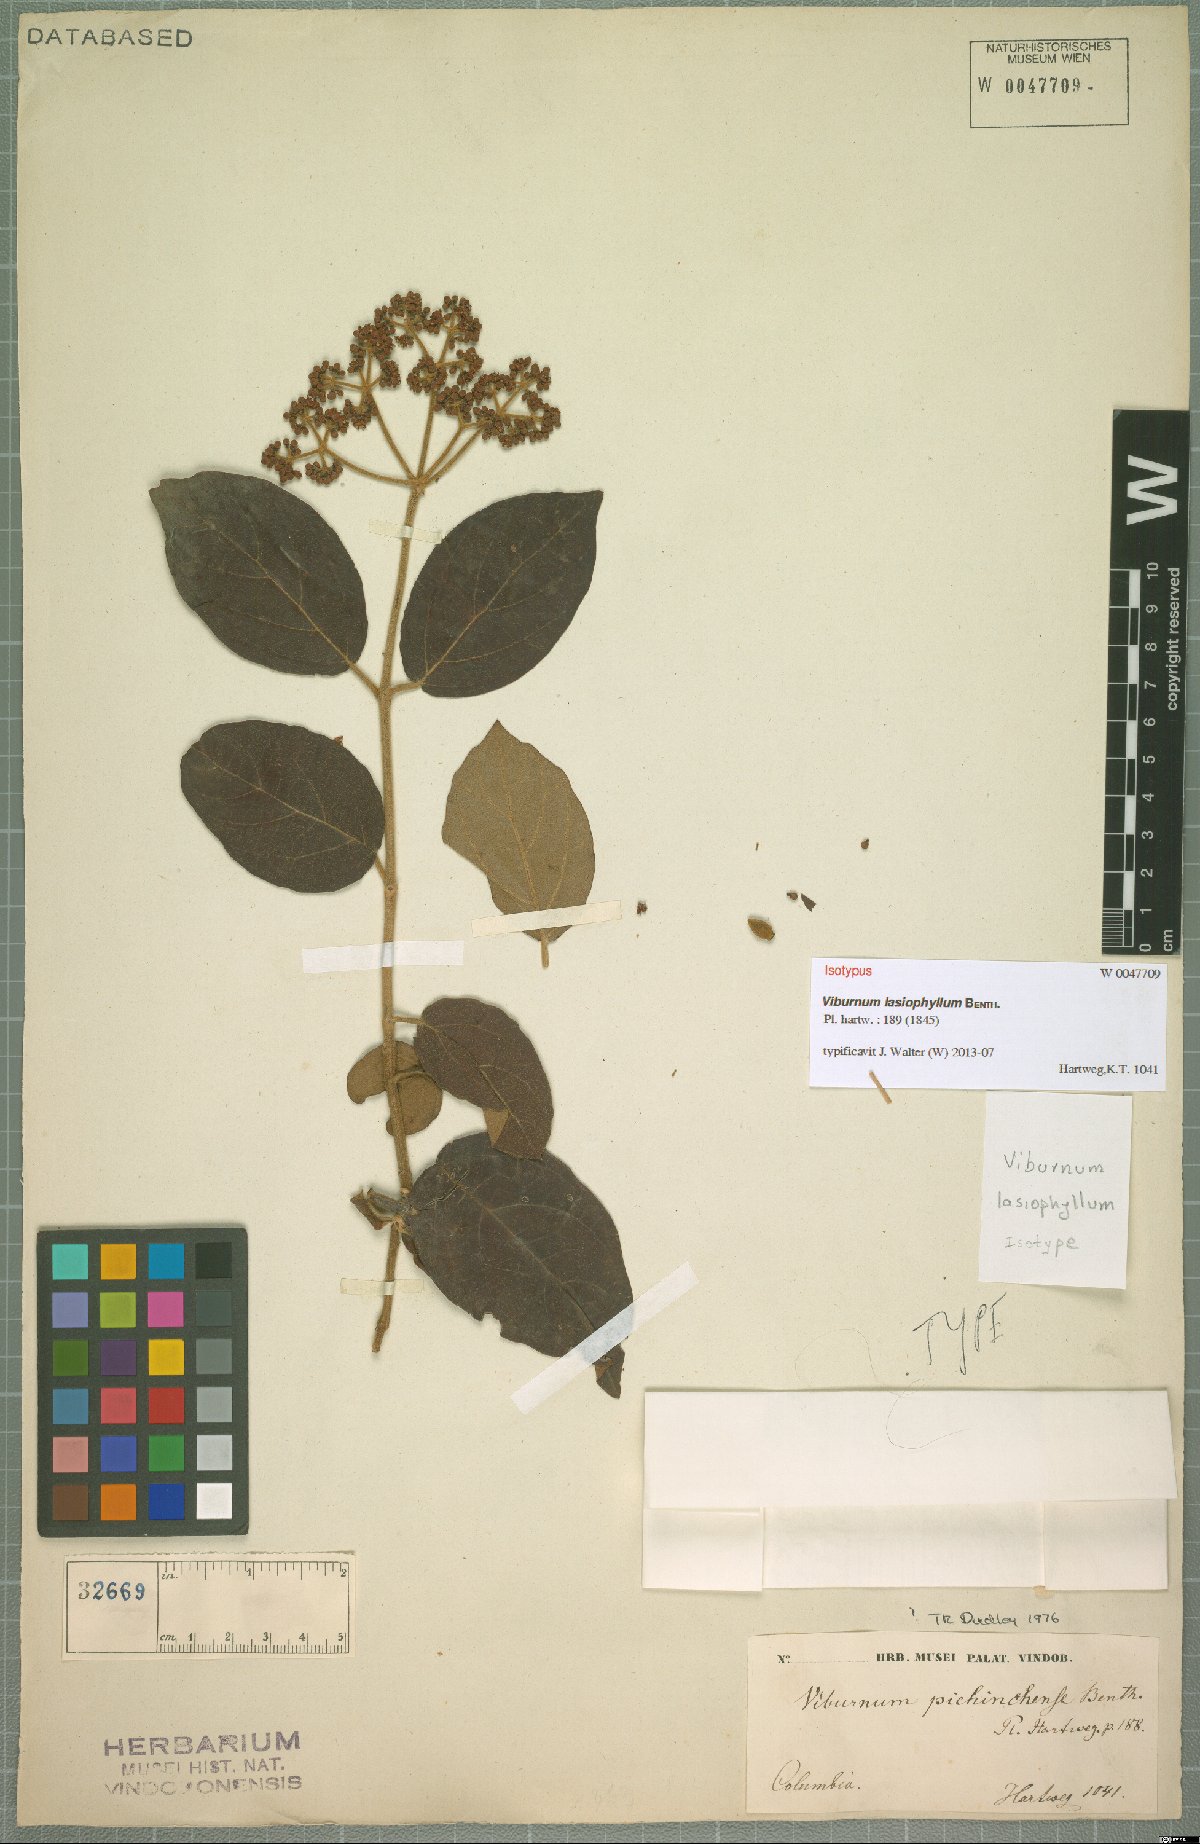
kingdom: Plantae
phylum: Tracheophyta
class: Magnoliopsida
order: Dipsacales
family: Viburnaceae
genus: Viburnum
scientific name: Viburnum lasiophyllum
